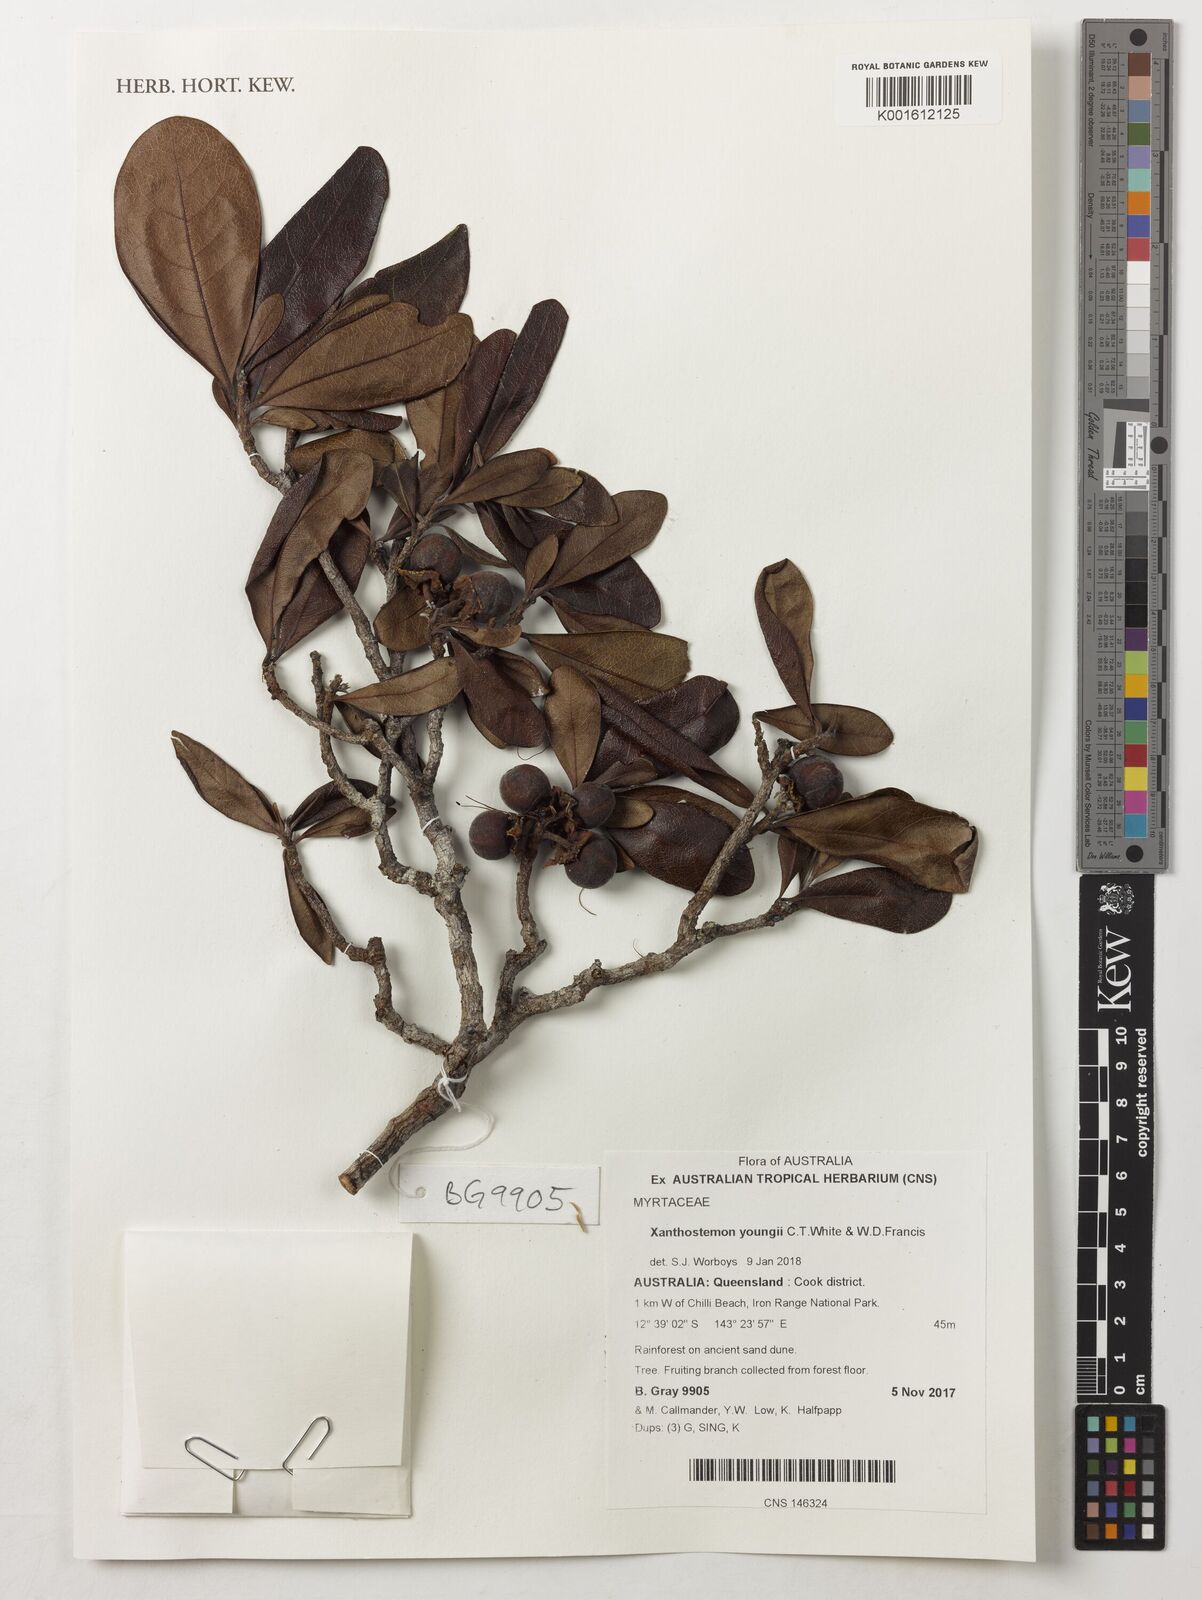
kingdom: Plantae
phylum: Tracheophyta
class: Magnoliopsida
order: Myrtales
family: Myrtaceae
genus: Xanthostemon
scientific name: Xanthostemon youngii
